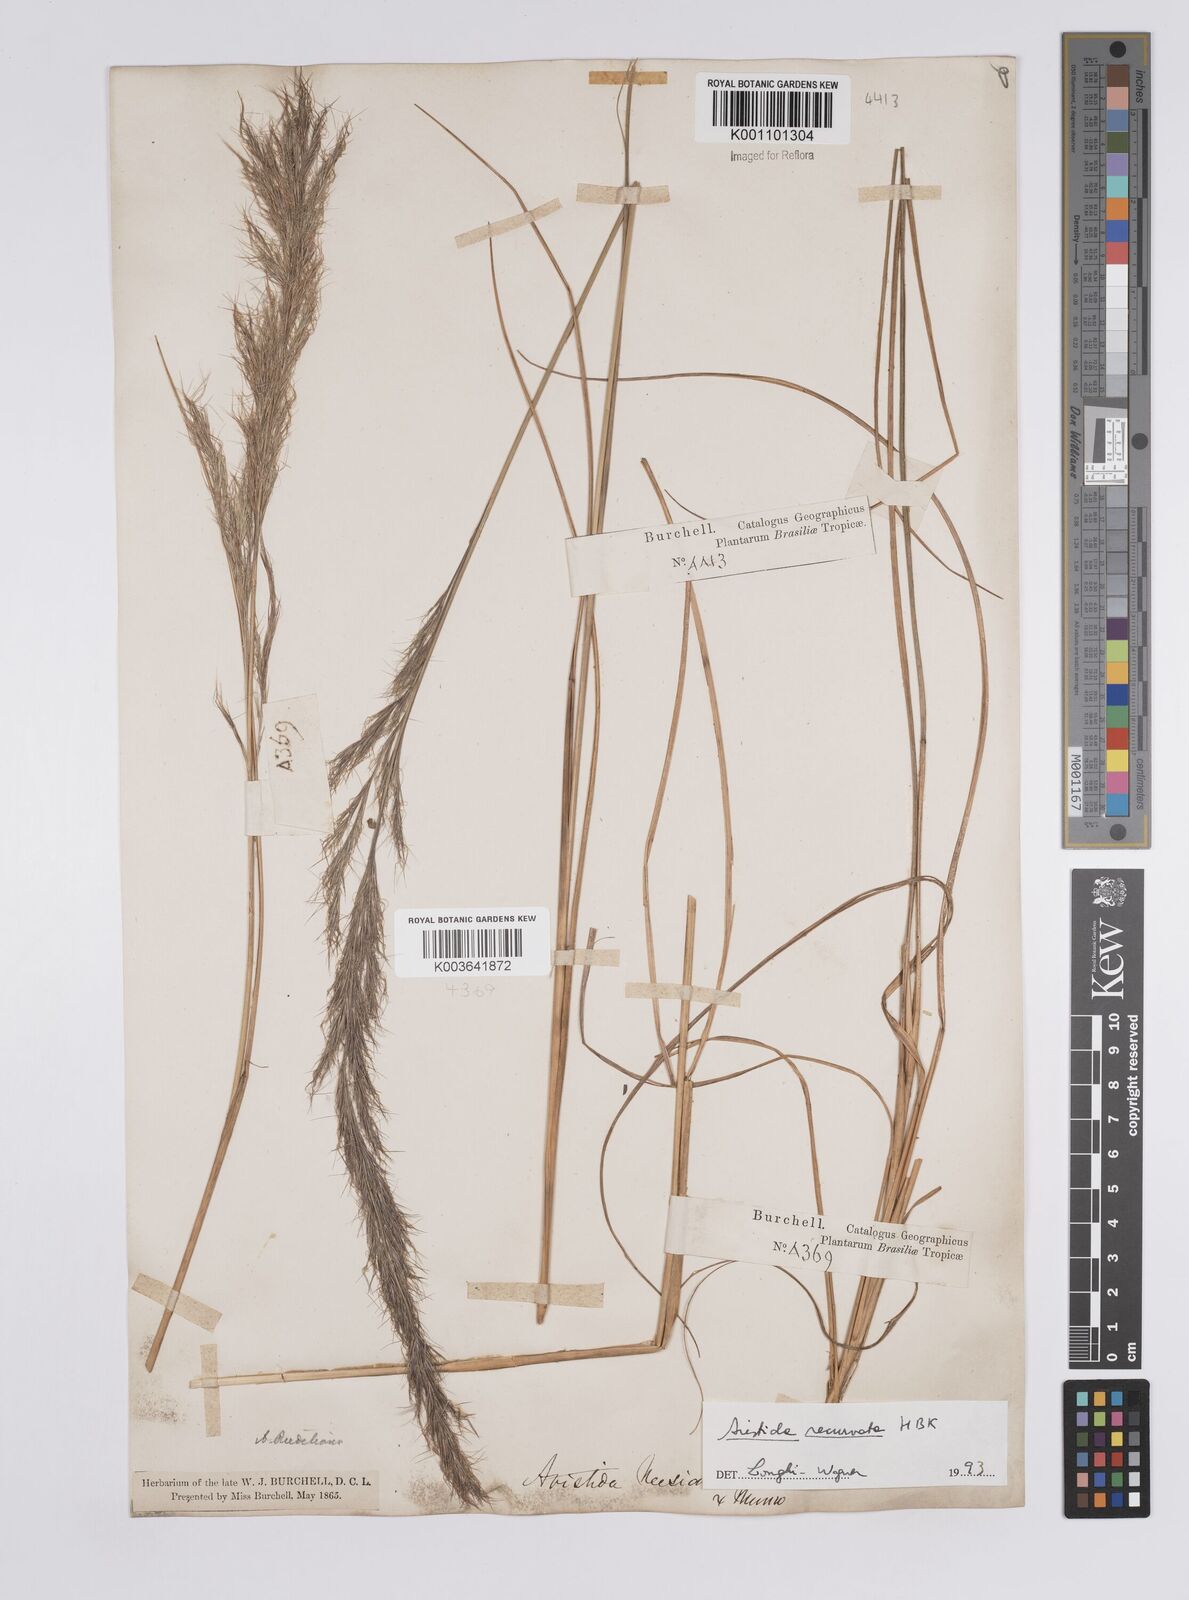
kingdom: Plantae
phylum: Tracheophyta
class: Liliopsida
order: Poales
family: Poaceae
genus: Aristida
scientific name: Aristida recurvata
